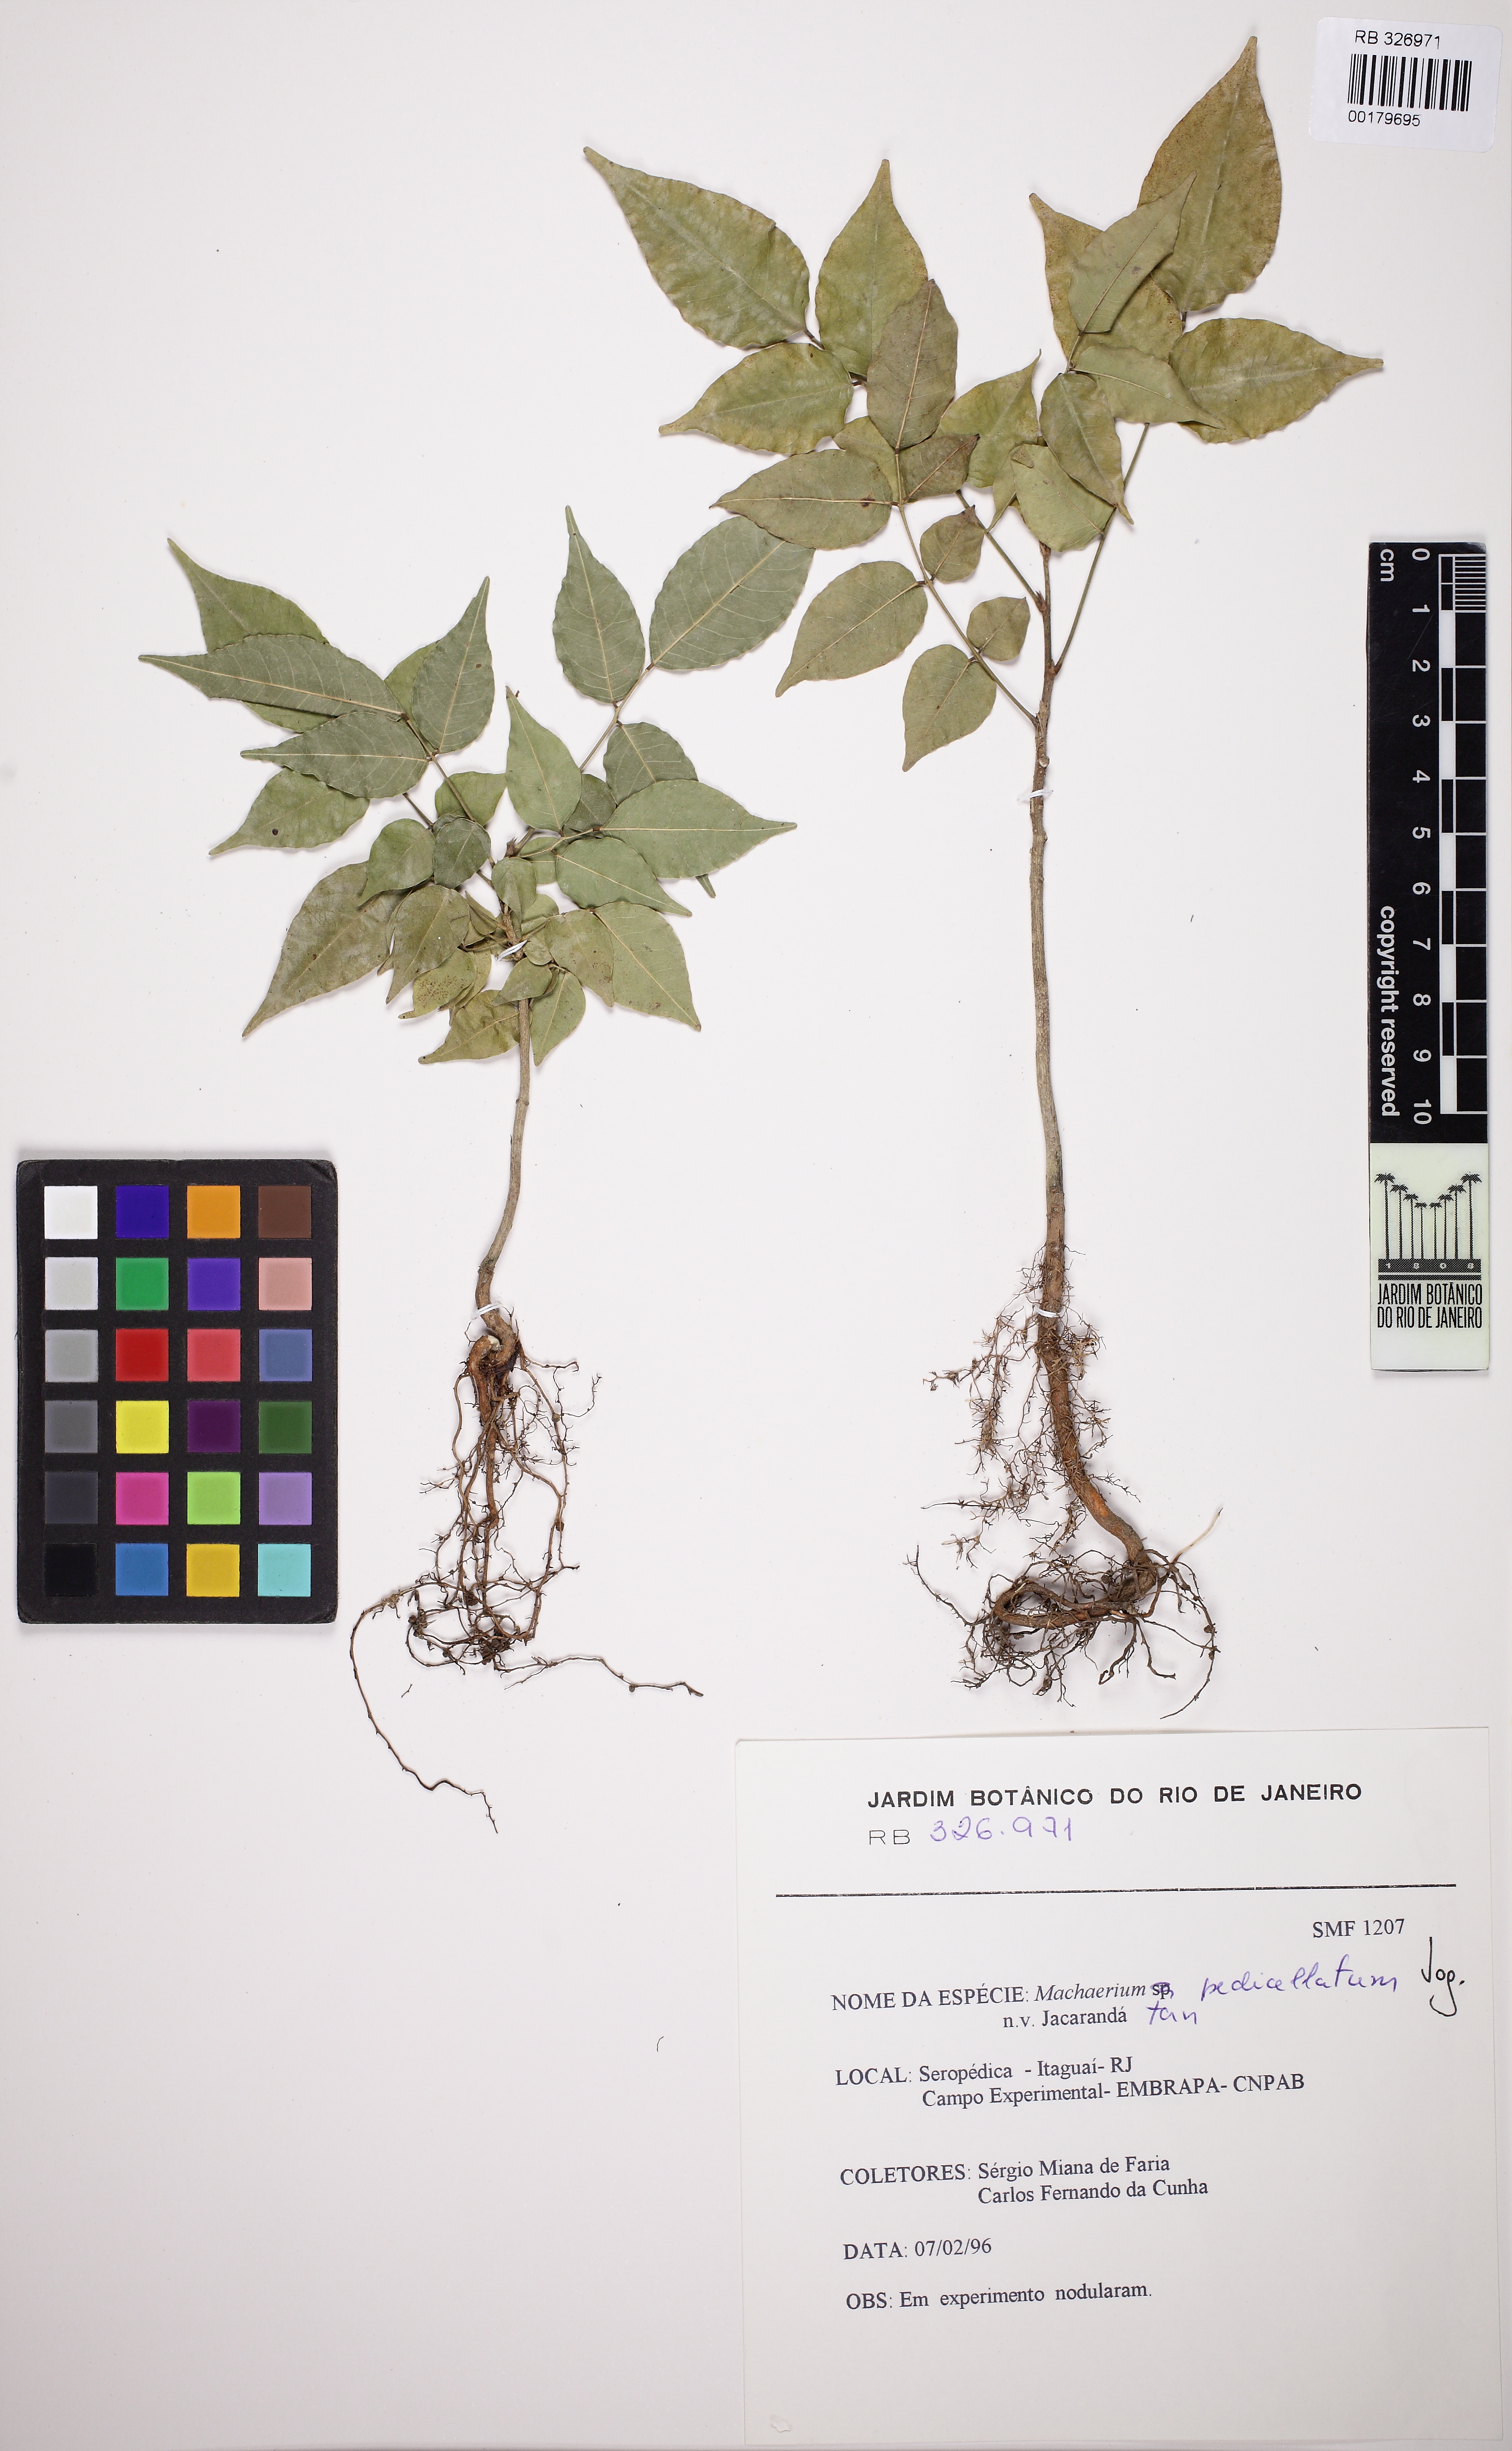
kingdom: Plantae
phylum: Tracheophyta
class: Magnoliopsida
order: Fabales
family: Fabaceae
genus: Machaerium
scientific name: Machaerium pedicellatum
